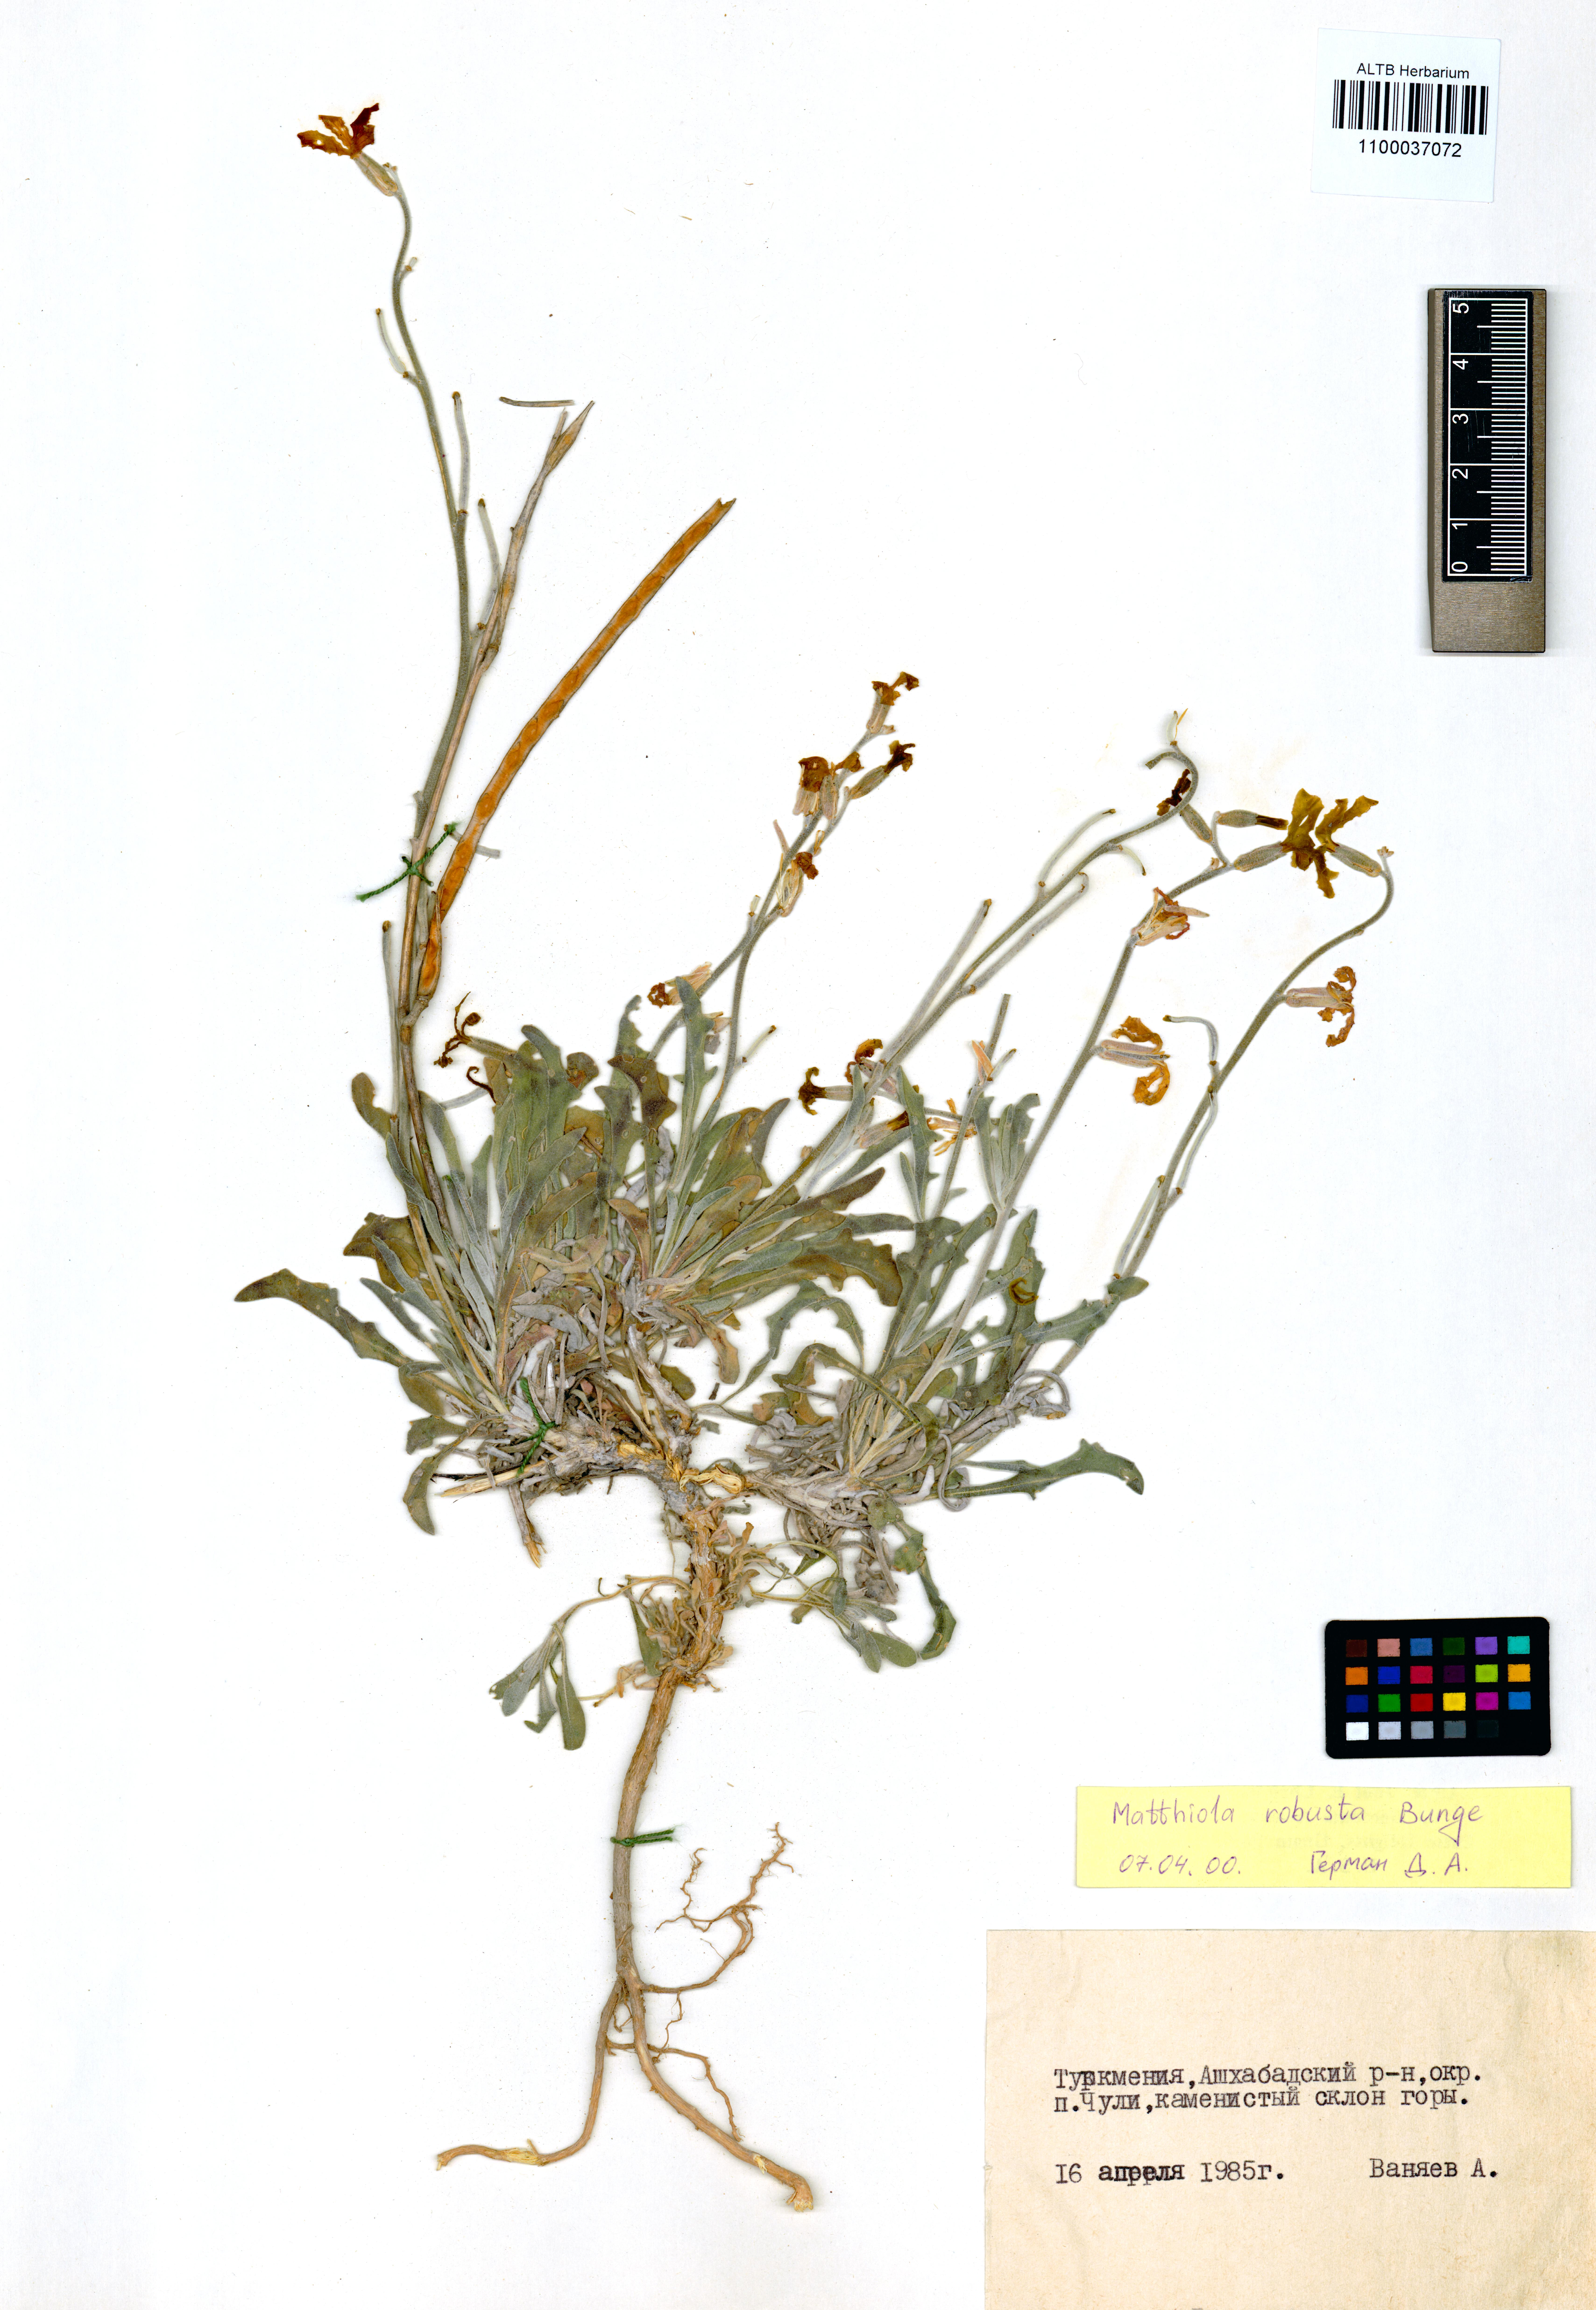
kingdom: Plantae
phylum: Tracheophyta
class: Magnoliopsida
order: Brassicales
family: Brassicaceae
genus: Matthiola
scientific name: Matthiola robusta
